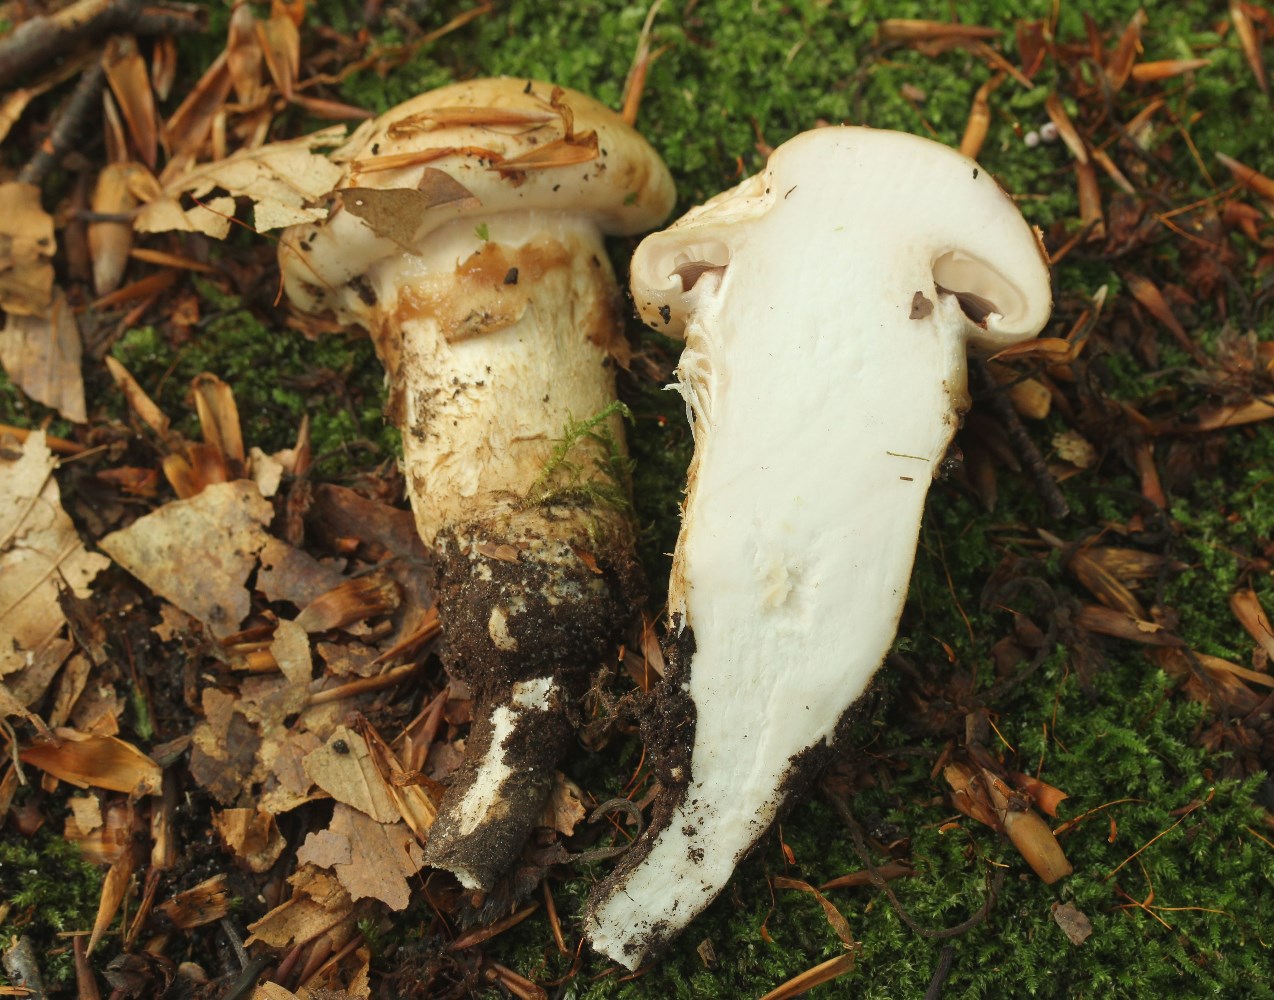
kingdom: Fungi
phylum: Basidiomycota
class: Agaricomycetes
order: Agaricales
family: Hymenogastraceae
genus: Hebeloma
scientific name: Hebeloma radicosum
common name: pælerods-tåreblad
